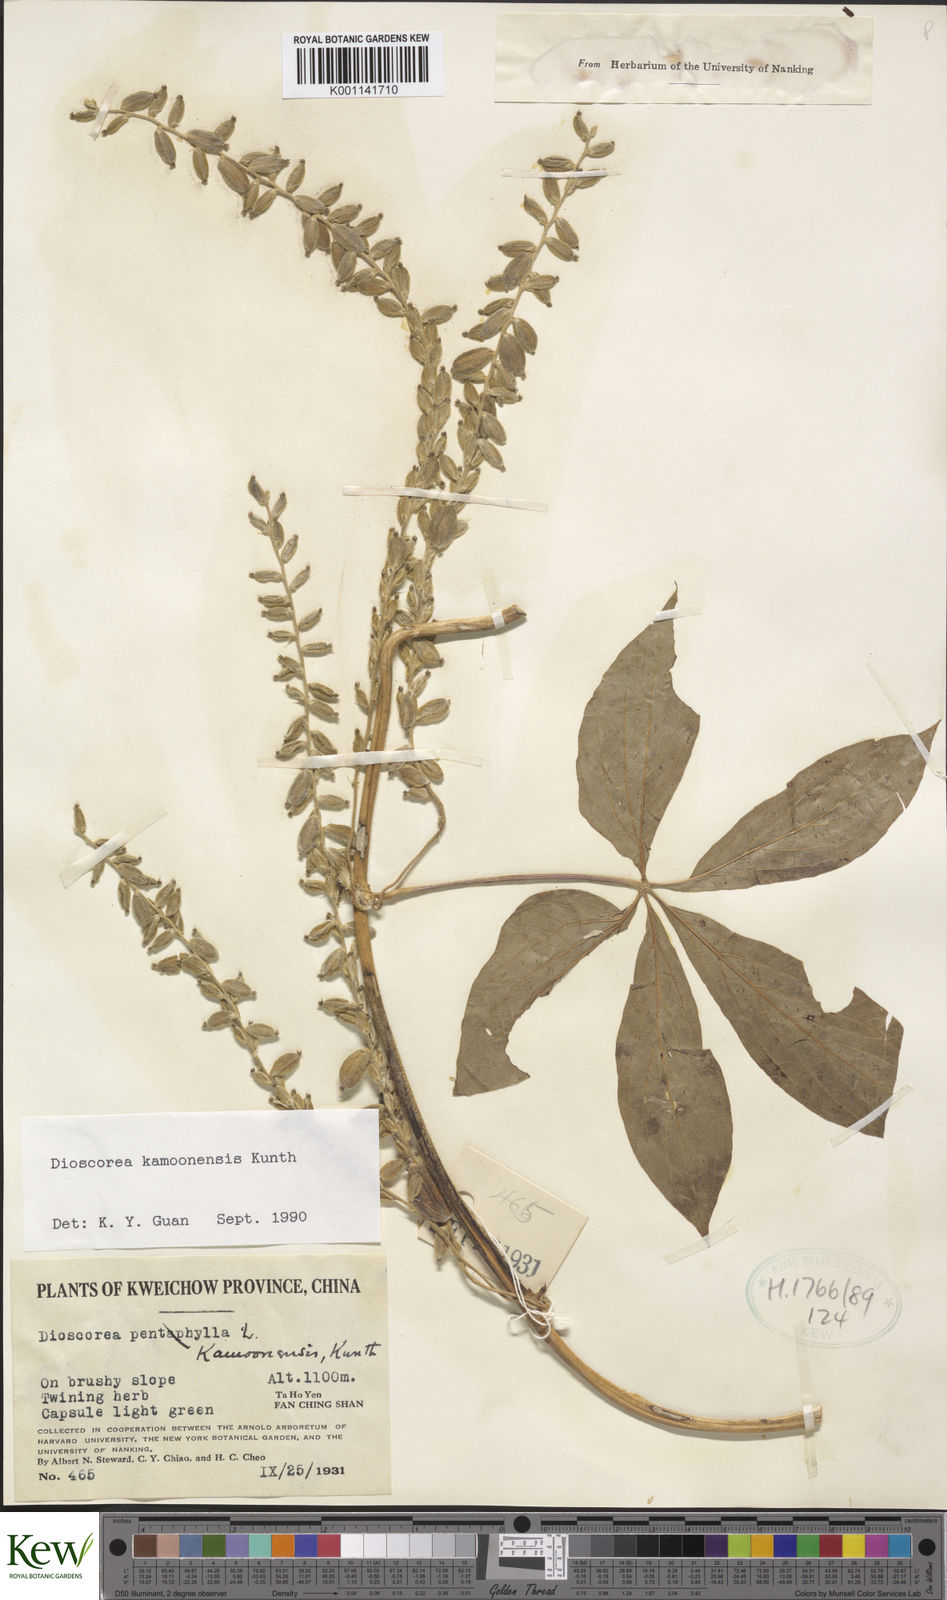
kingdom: Plantae
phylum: Tracheophyta
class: Liliopsida
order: Dioscoreales
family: Dioscoreaceae
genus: Dioscorea
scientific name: Dioscorea kamoonensis
